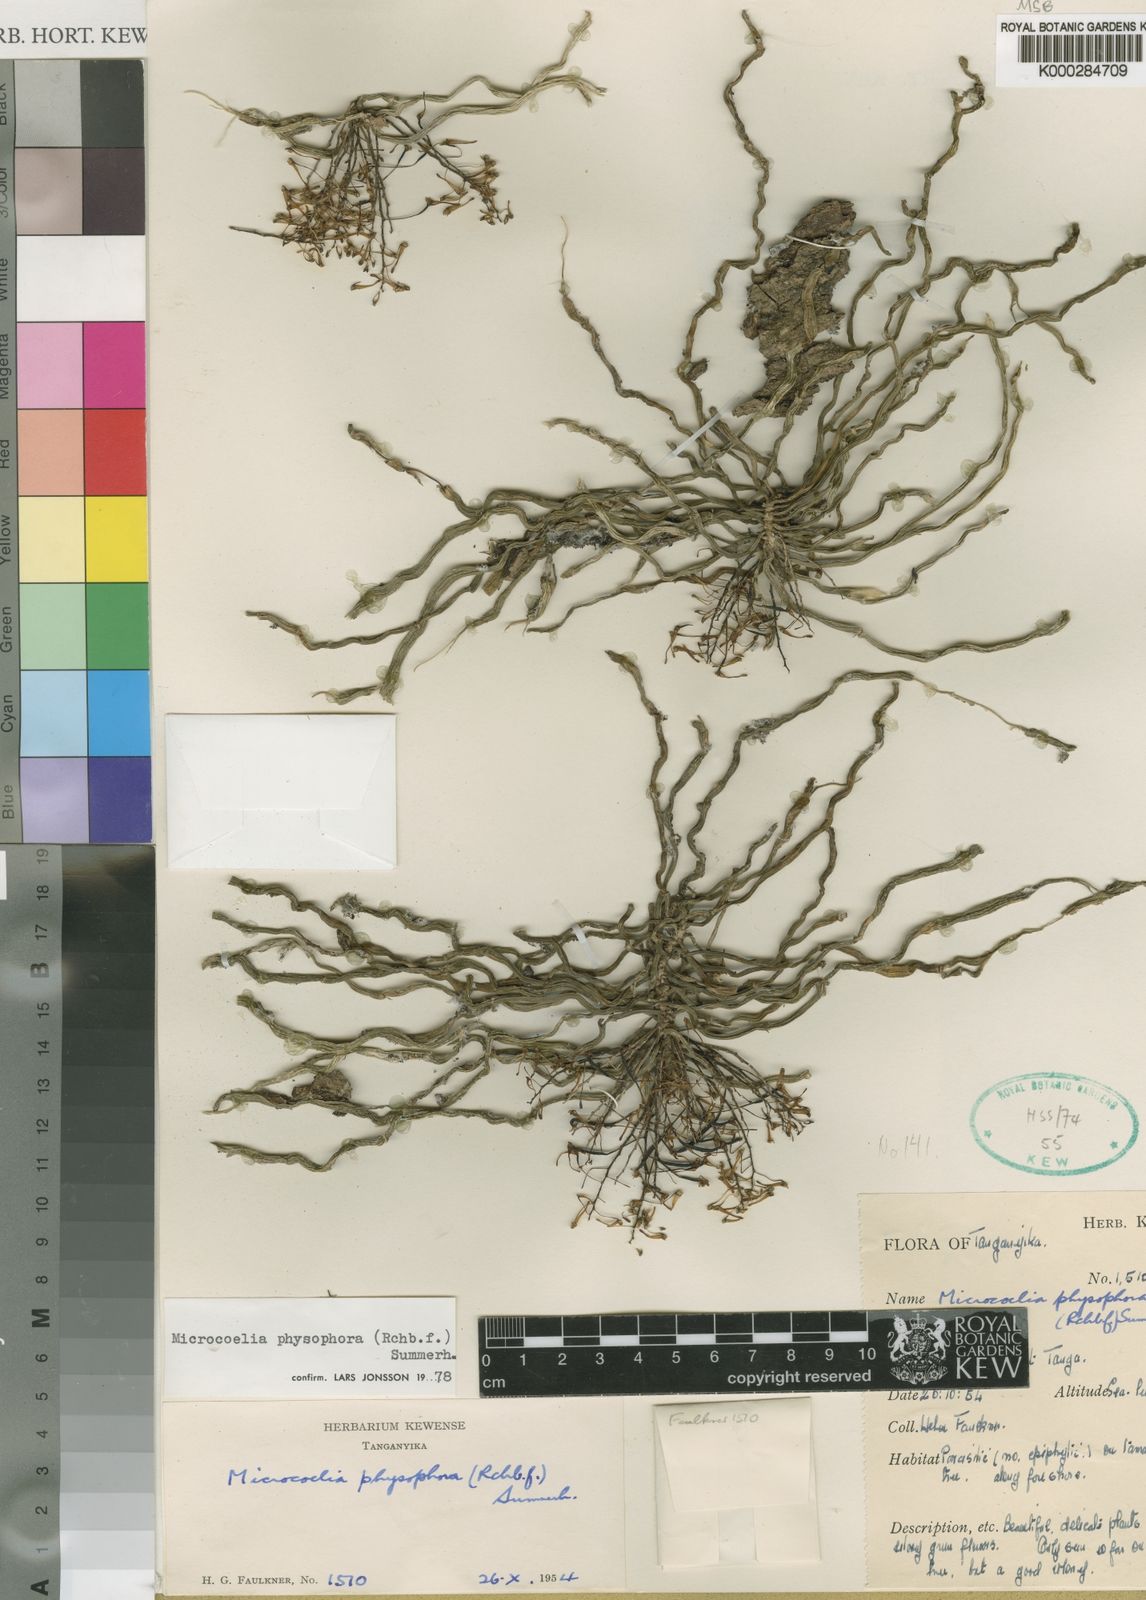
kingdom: Plantae
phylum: Tracheophyta
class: Liliopsida
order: Asparagales
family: Orchidaceae
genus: Microcoelia
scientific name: Microcoelia physophora
